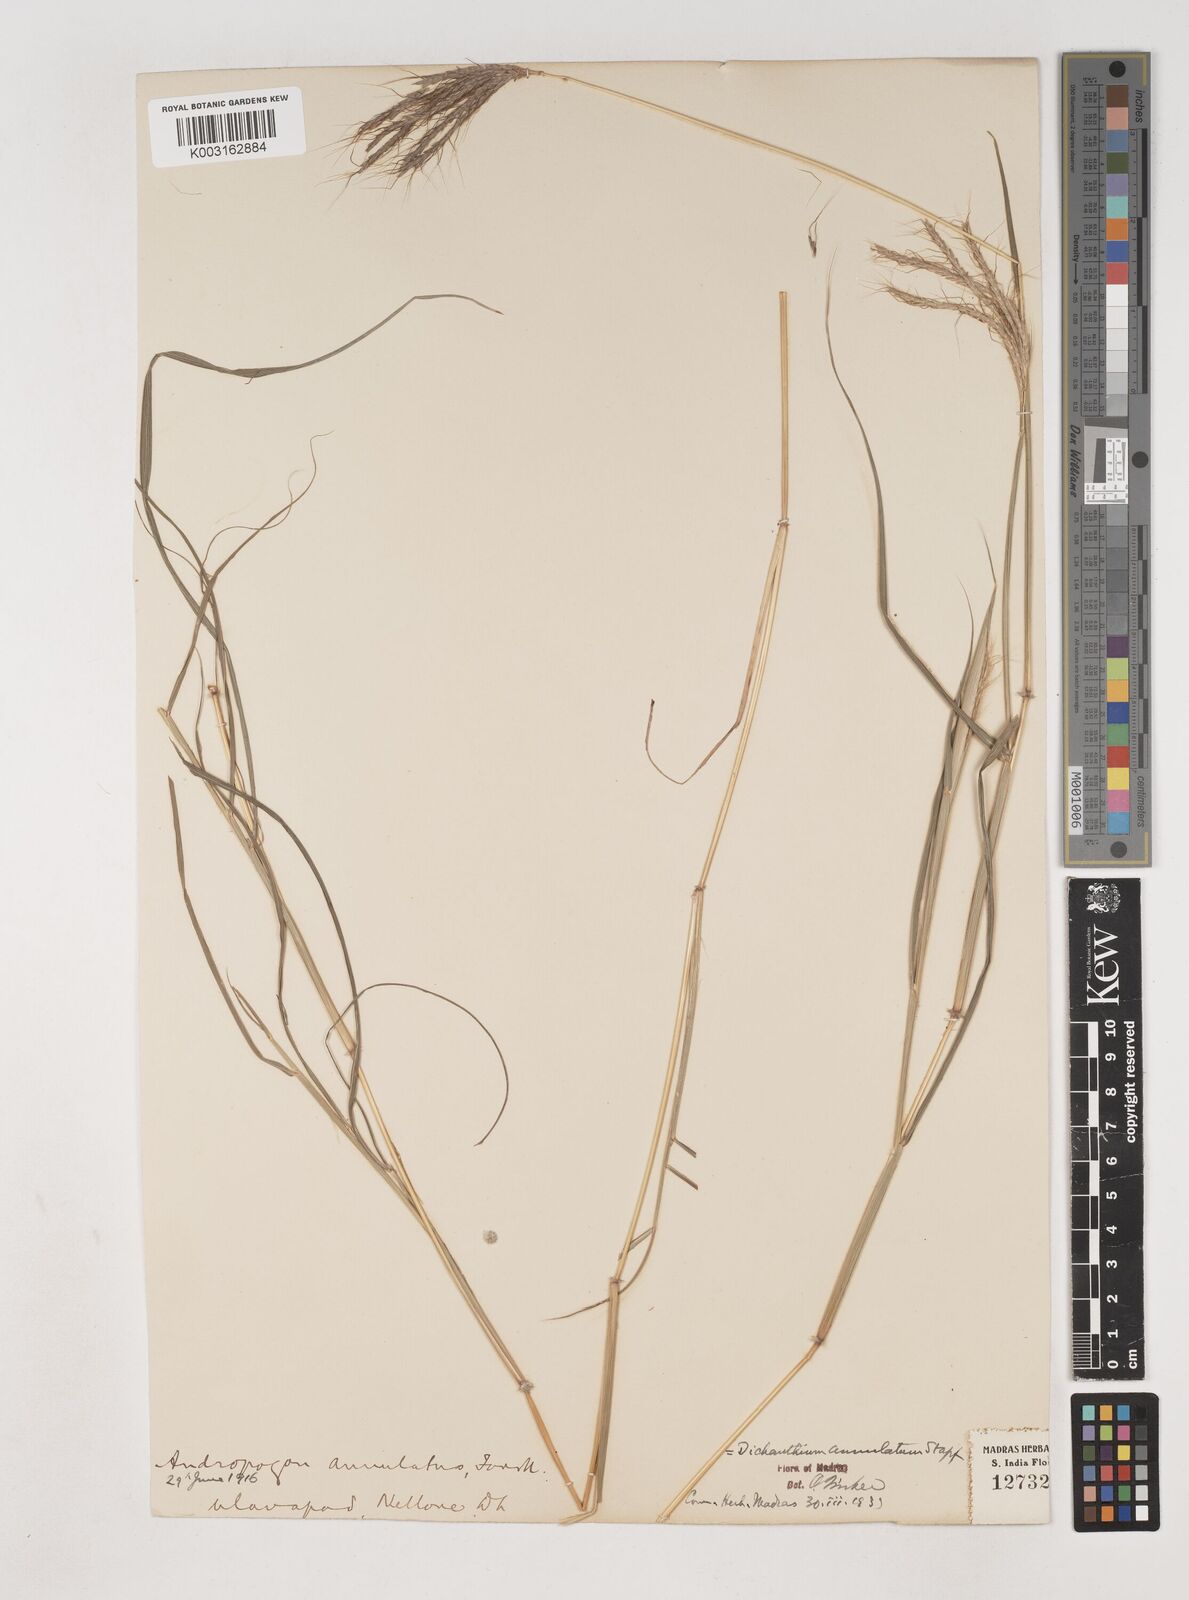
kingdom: Plantae
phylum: Tracheophyta
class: Liliopsida
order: Poales
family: Poaceae
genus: Dichanthium
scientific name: Dichanthium annulatum
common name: Kleberg's bluestem
